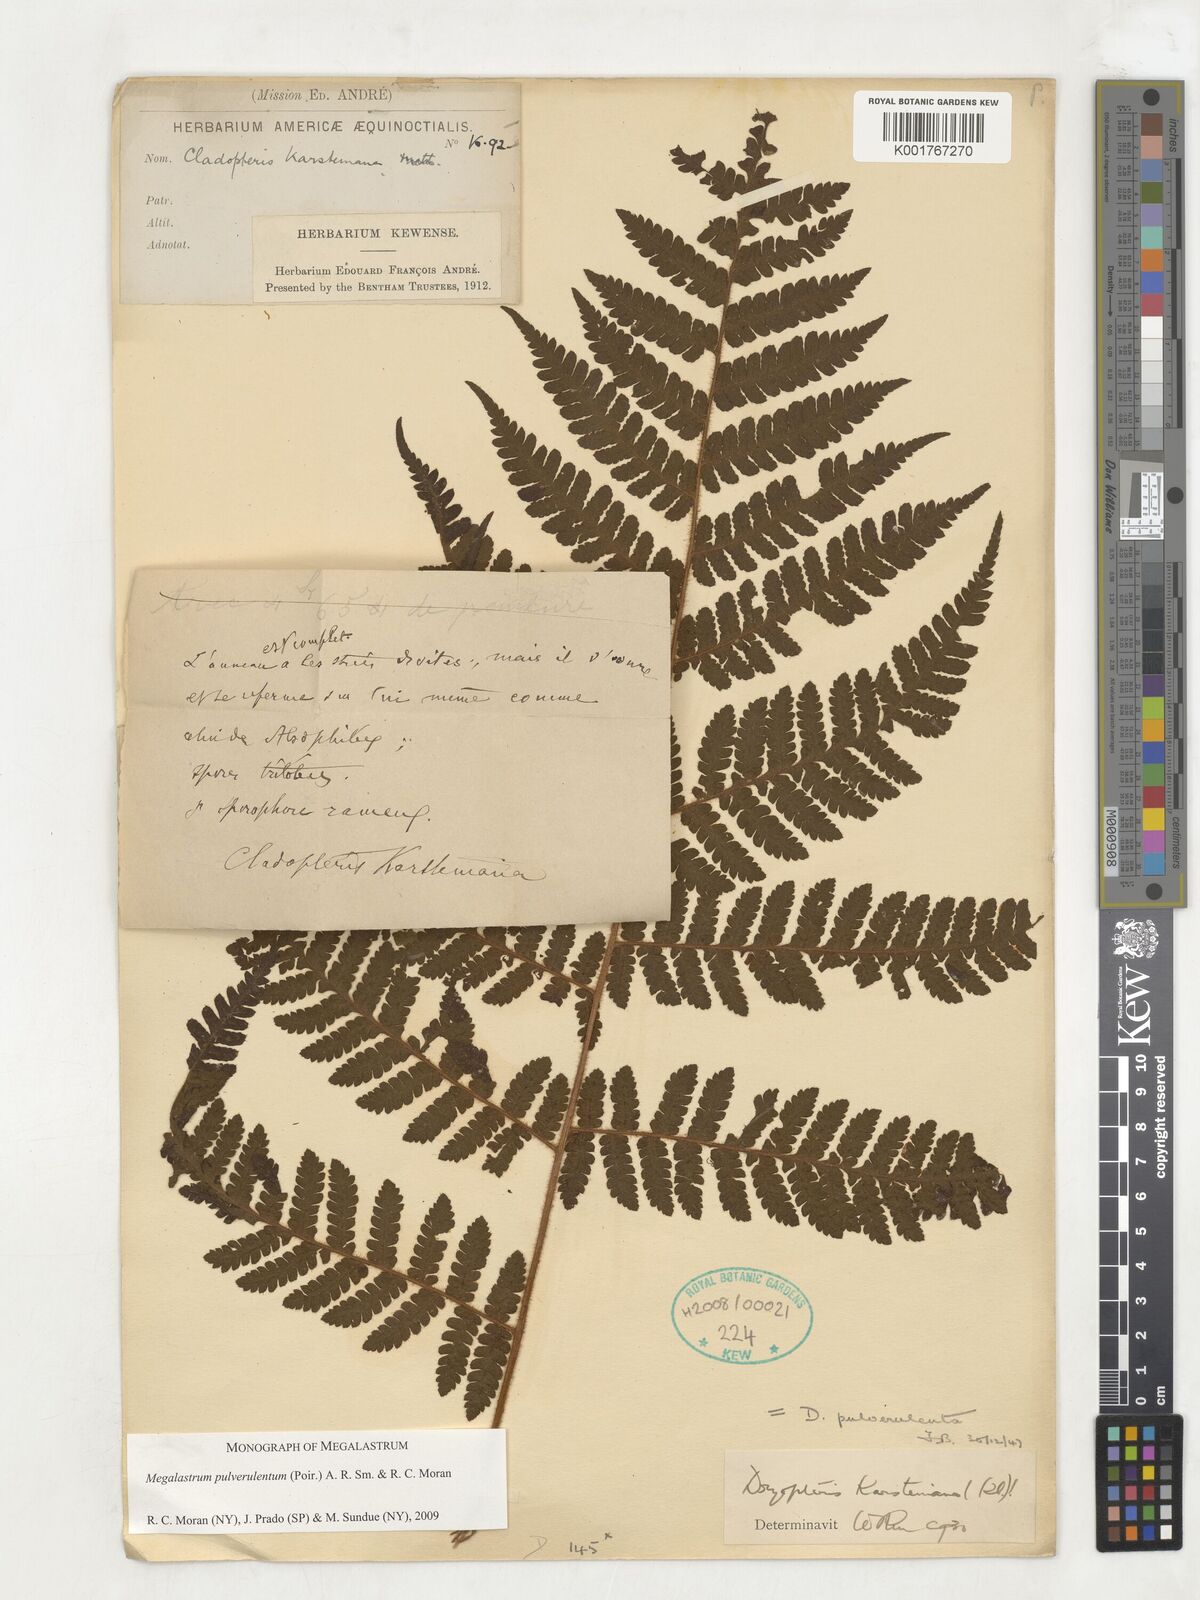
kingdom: Plantae
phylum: Tracheophyta
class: Polypodiopsida
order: Polypodiales
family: Dryopteridaceae
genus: Megalastrum
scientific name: Megalastrum pulverulentum
